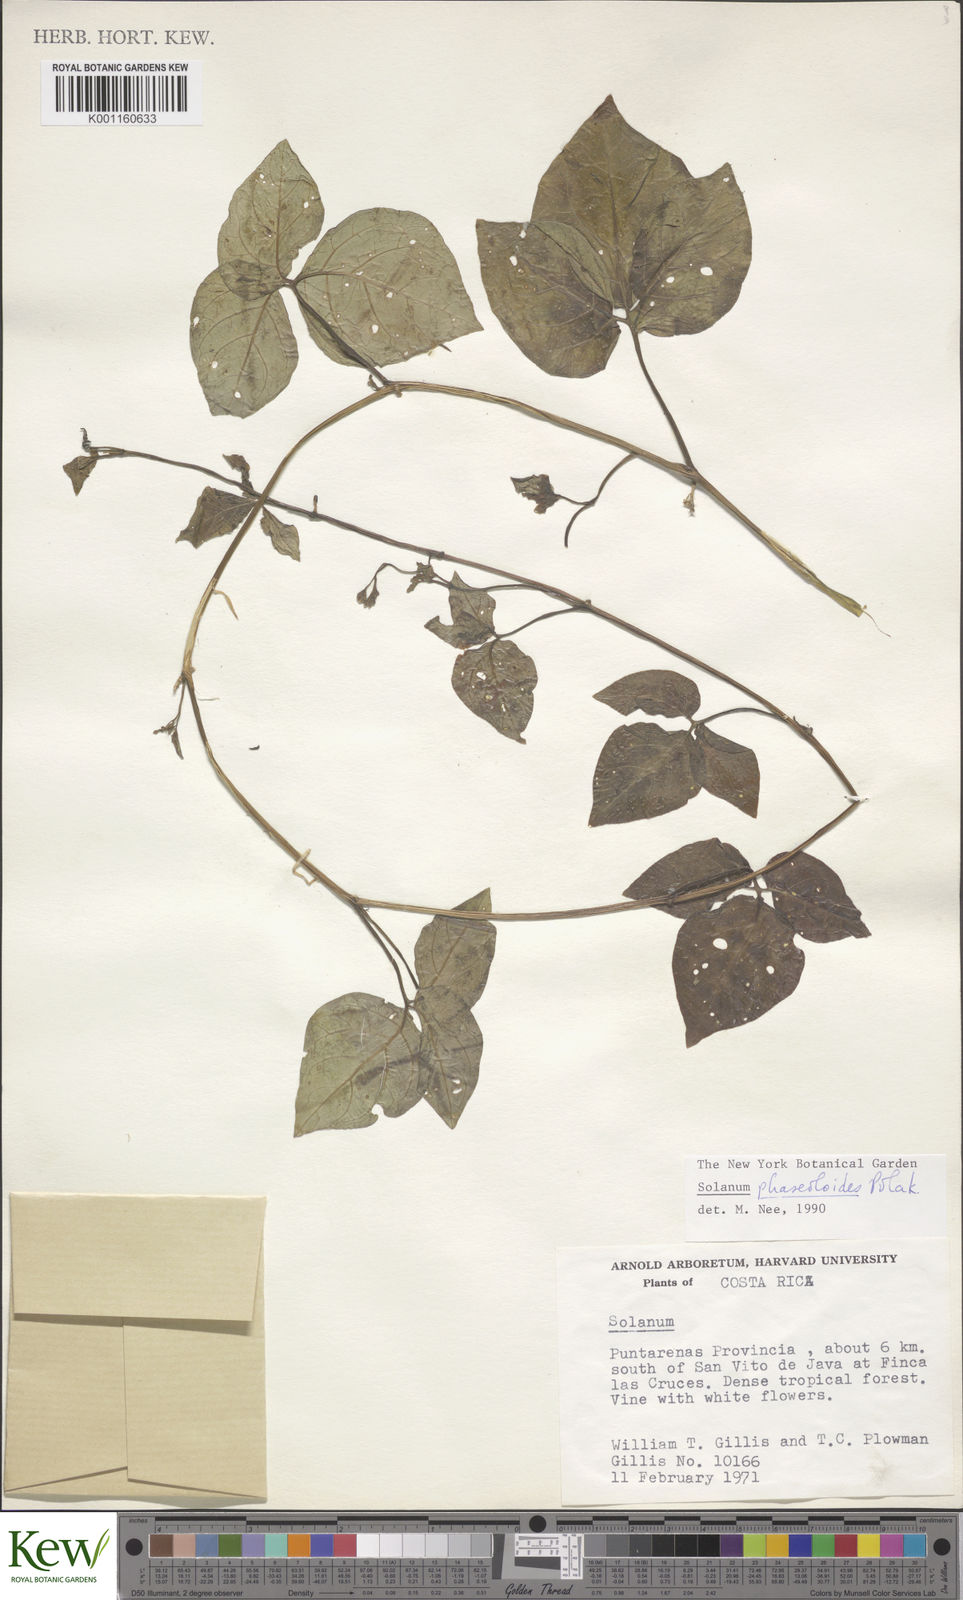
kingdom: Plantae
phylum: Tracheophyta
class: Magnoliopsida
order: Solanales
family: Solanaceae
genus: Solanum
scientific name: Solanum phaseoloides
